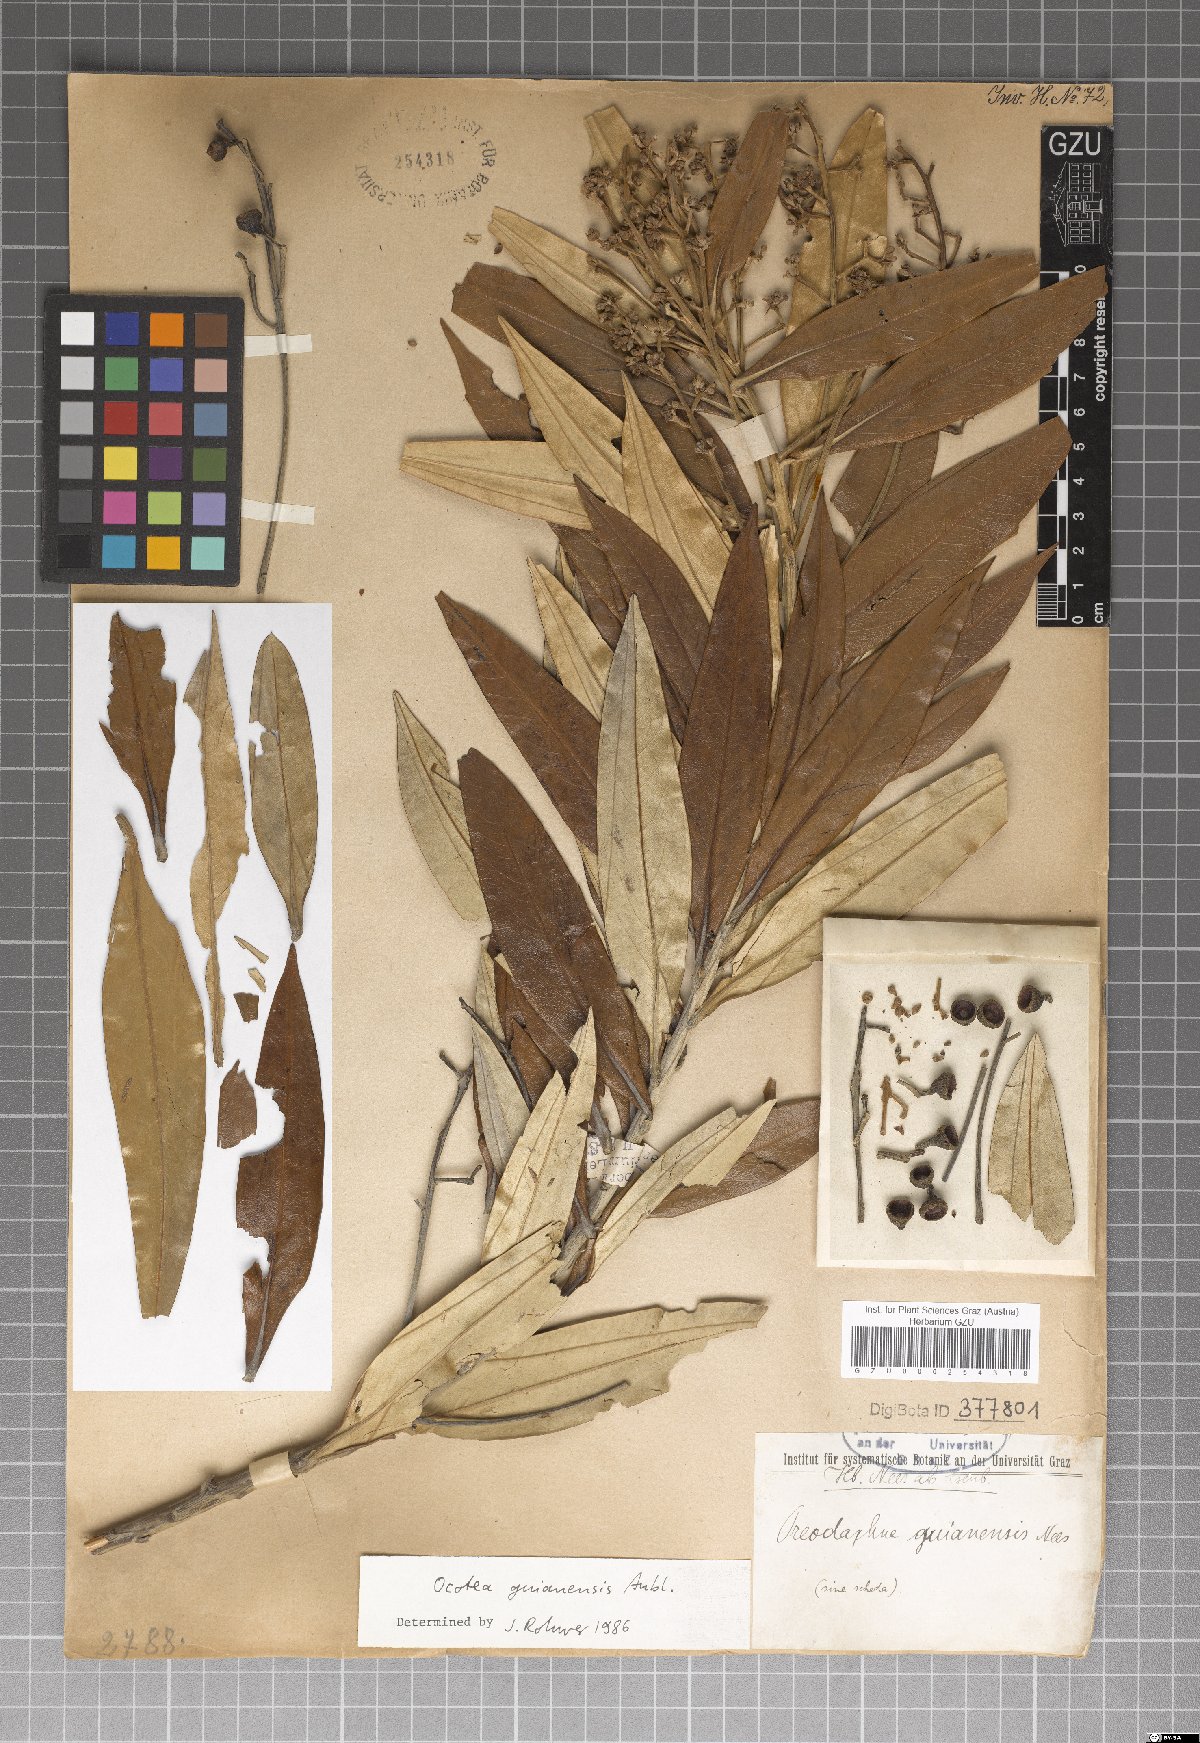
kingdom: Plantae
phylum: Tracheophyta
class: Magnoliopsida
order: Laurales
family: Lauraceae
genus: Ocotea
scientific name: Ocotea guianensis
